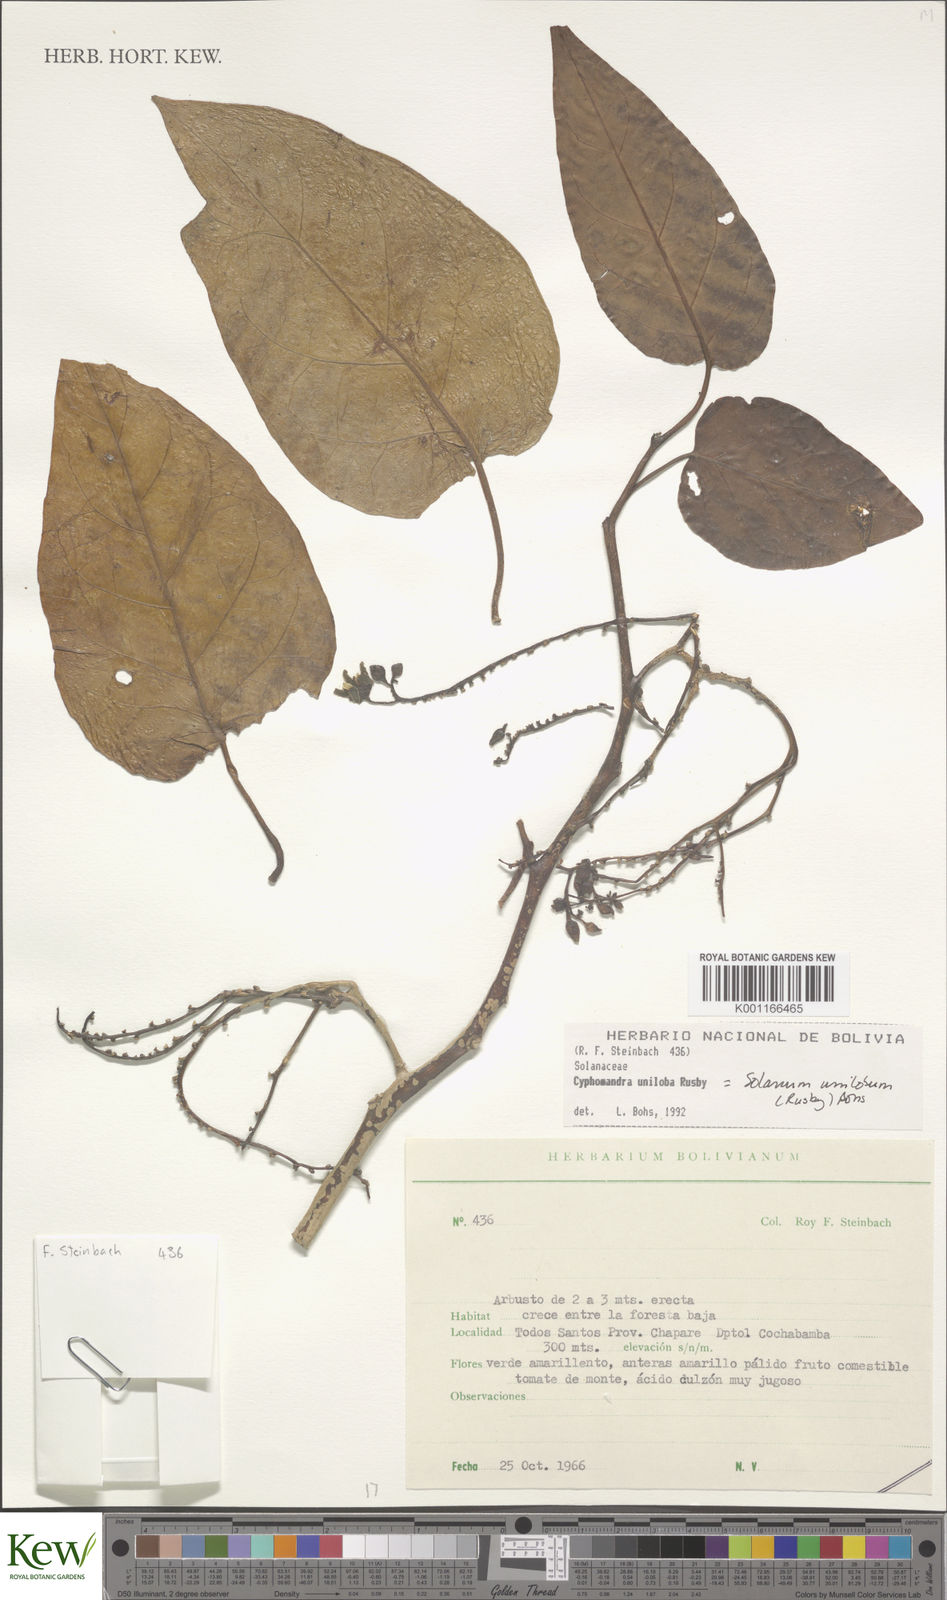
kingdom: Plantae
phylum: Tracheophyta
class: Magnoliopsida
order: Solanales
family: Solanaceae
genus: Solanum
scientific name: Solanum unilobum
